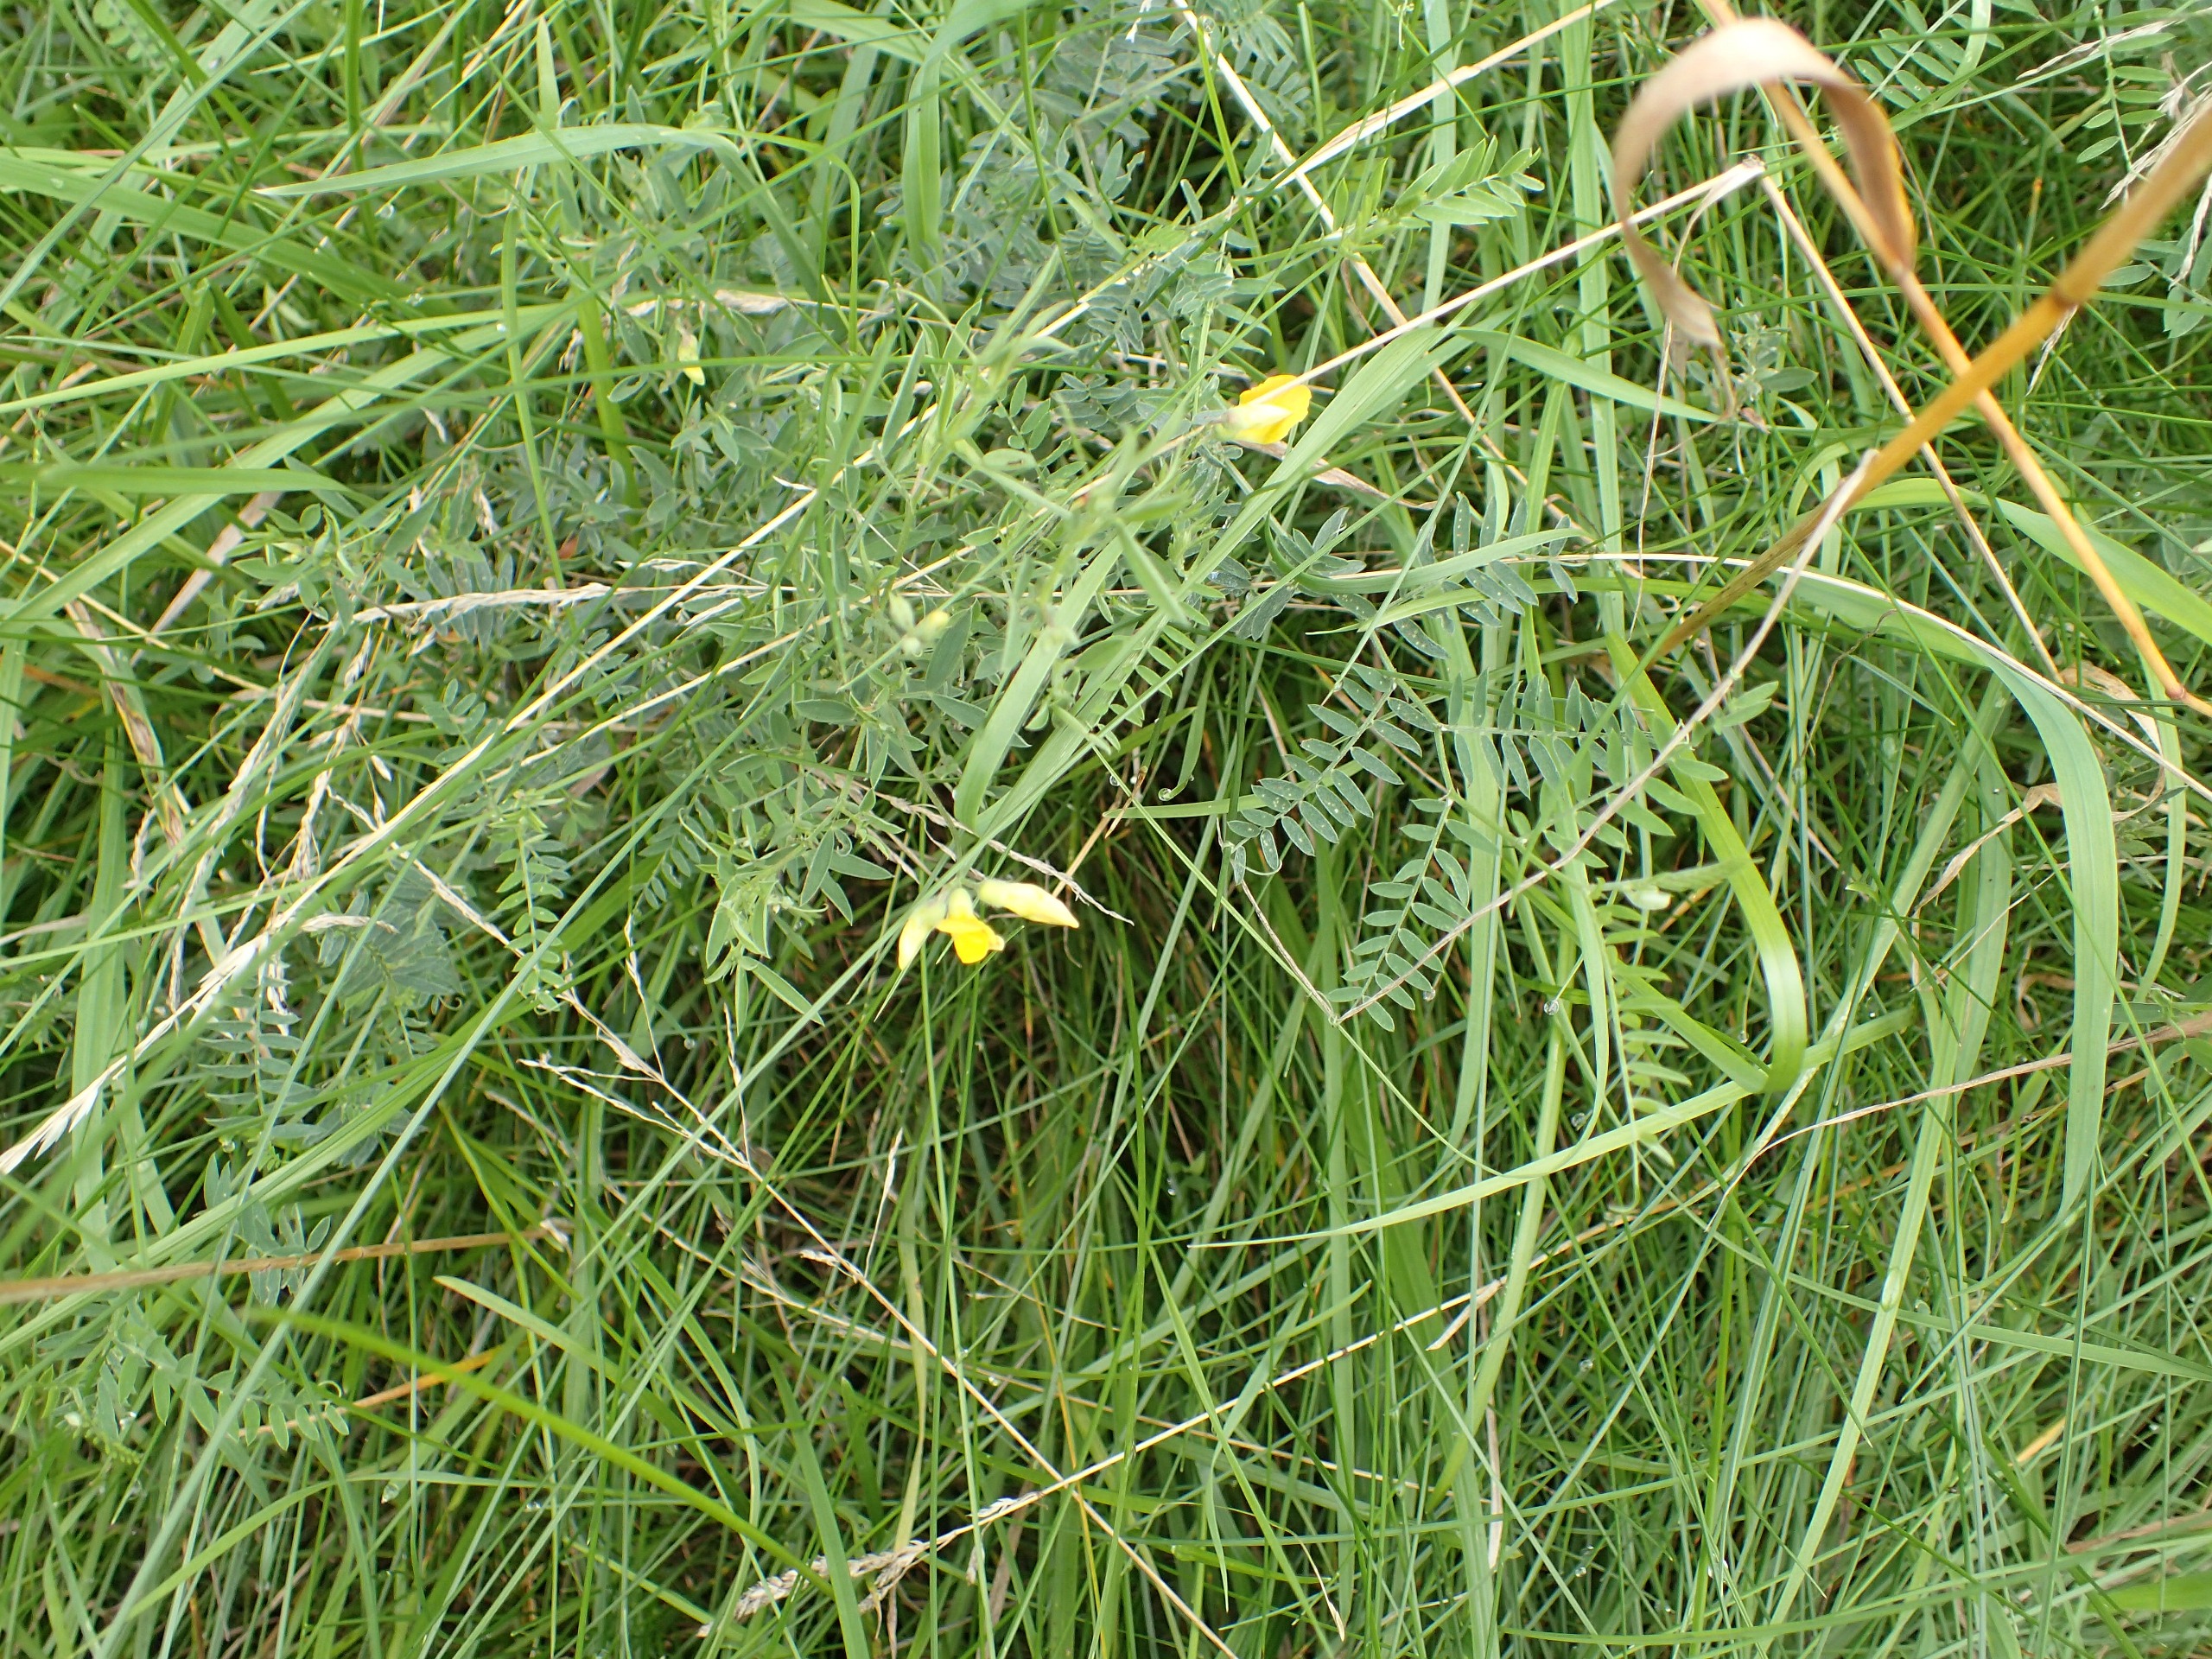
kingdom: Plantae
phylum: Tracheophyta
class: Magnoliopsida
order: Fabales
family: Fabaceae
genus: Lathyrus
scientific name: Lathyrus pratensis
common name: Gul fladbælg
